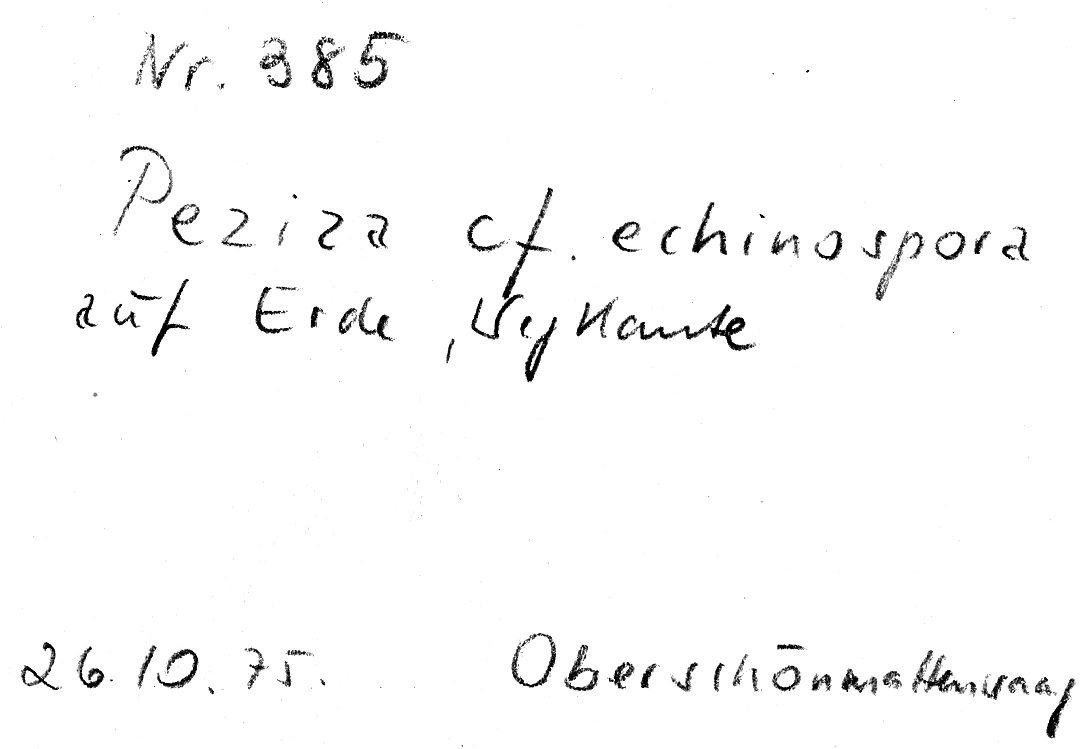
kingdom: Fungi
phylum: Ascomycota
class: Pezizomycetes
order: Pezizales
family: Pezizaceae
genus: Peziza
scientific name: Peziza echinospora
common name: Charcoal cup
